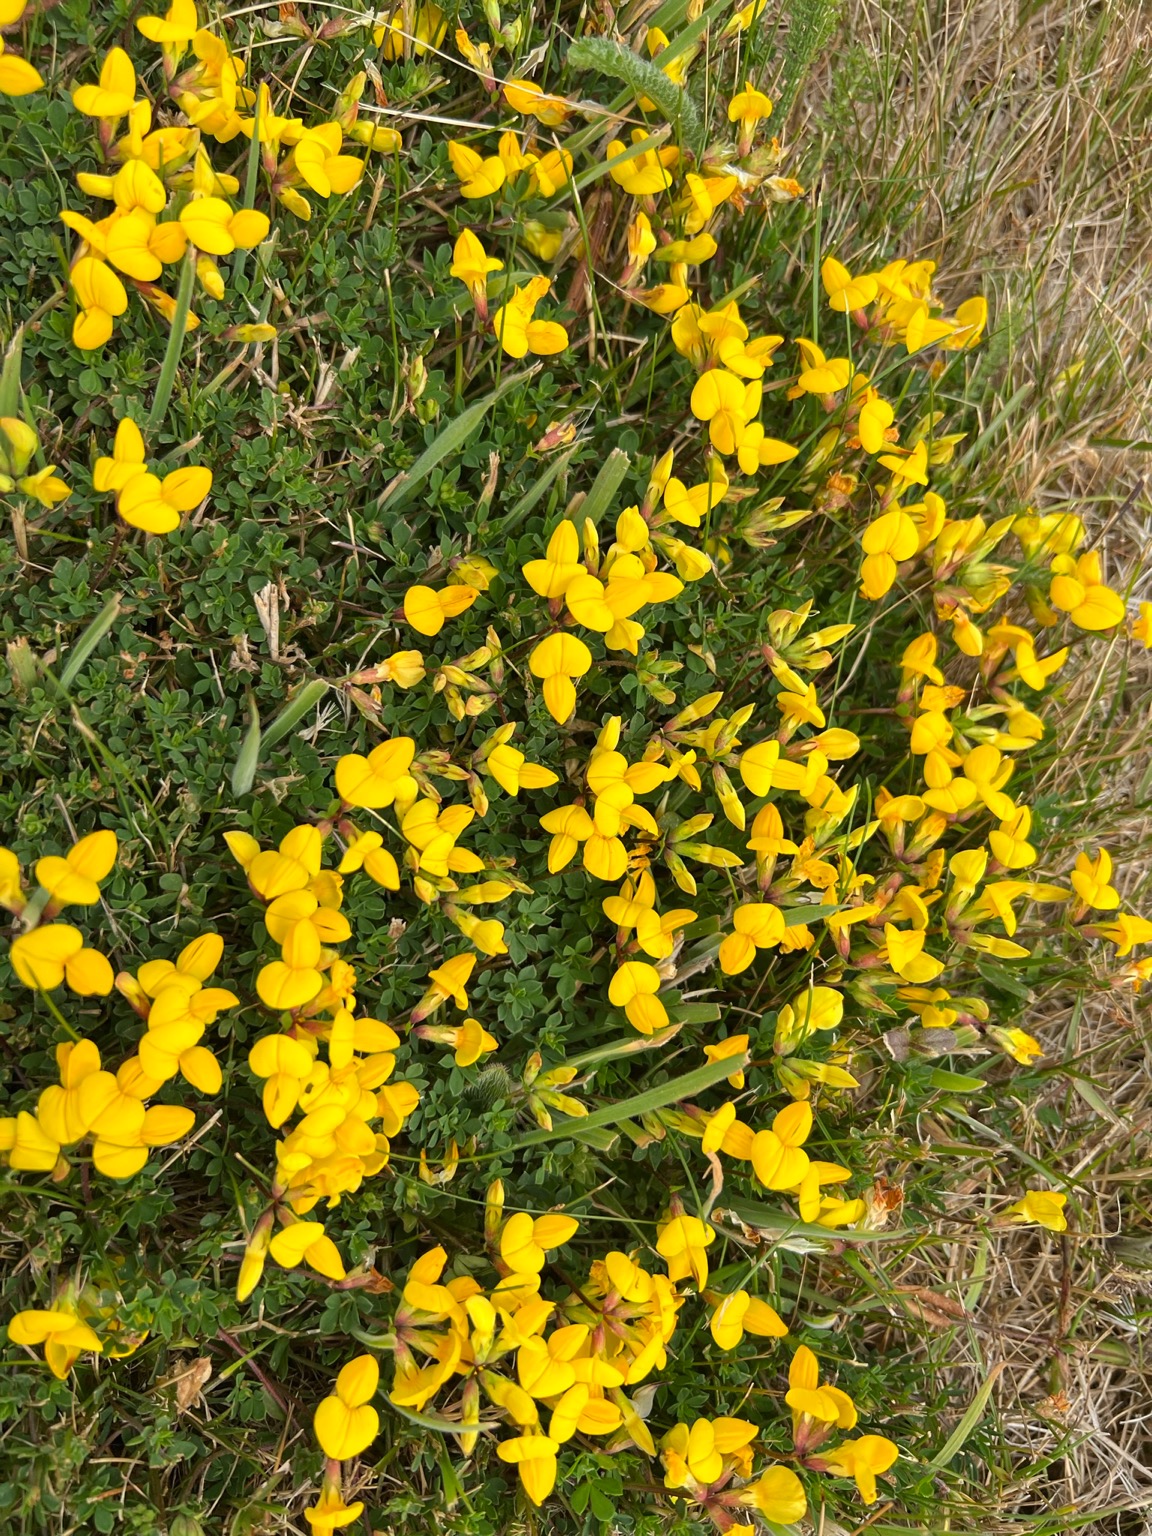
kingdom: Plantae
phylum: Tracheophyta
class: Magnoliopsida
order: Fabales
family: Fabaceae
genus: Lotus
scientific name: Lotus corniculatus
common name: Almindelig kællingetand
